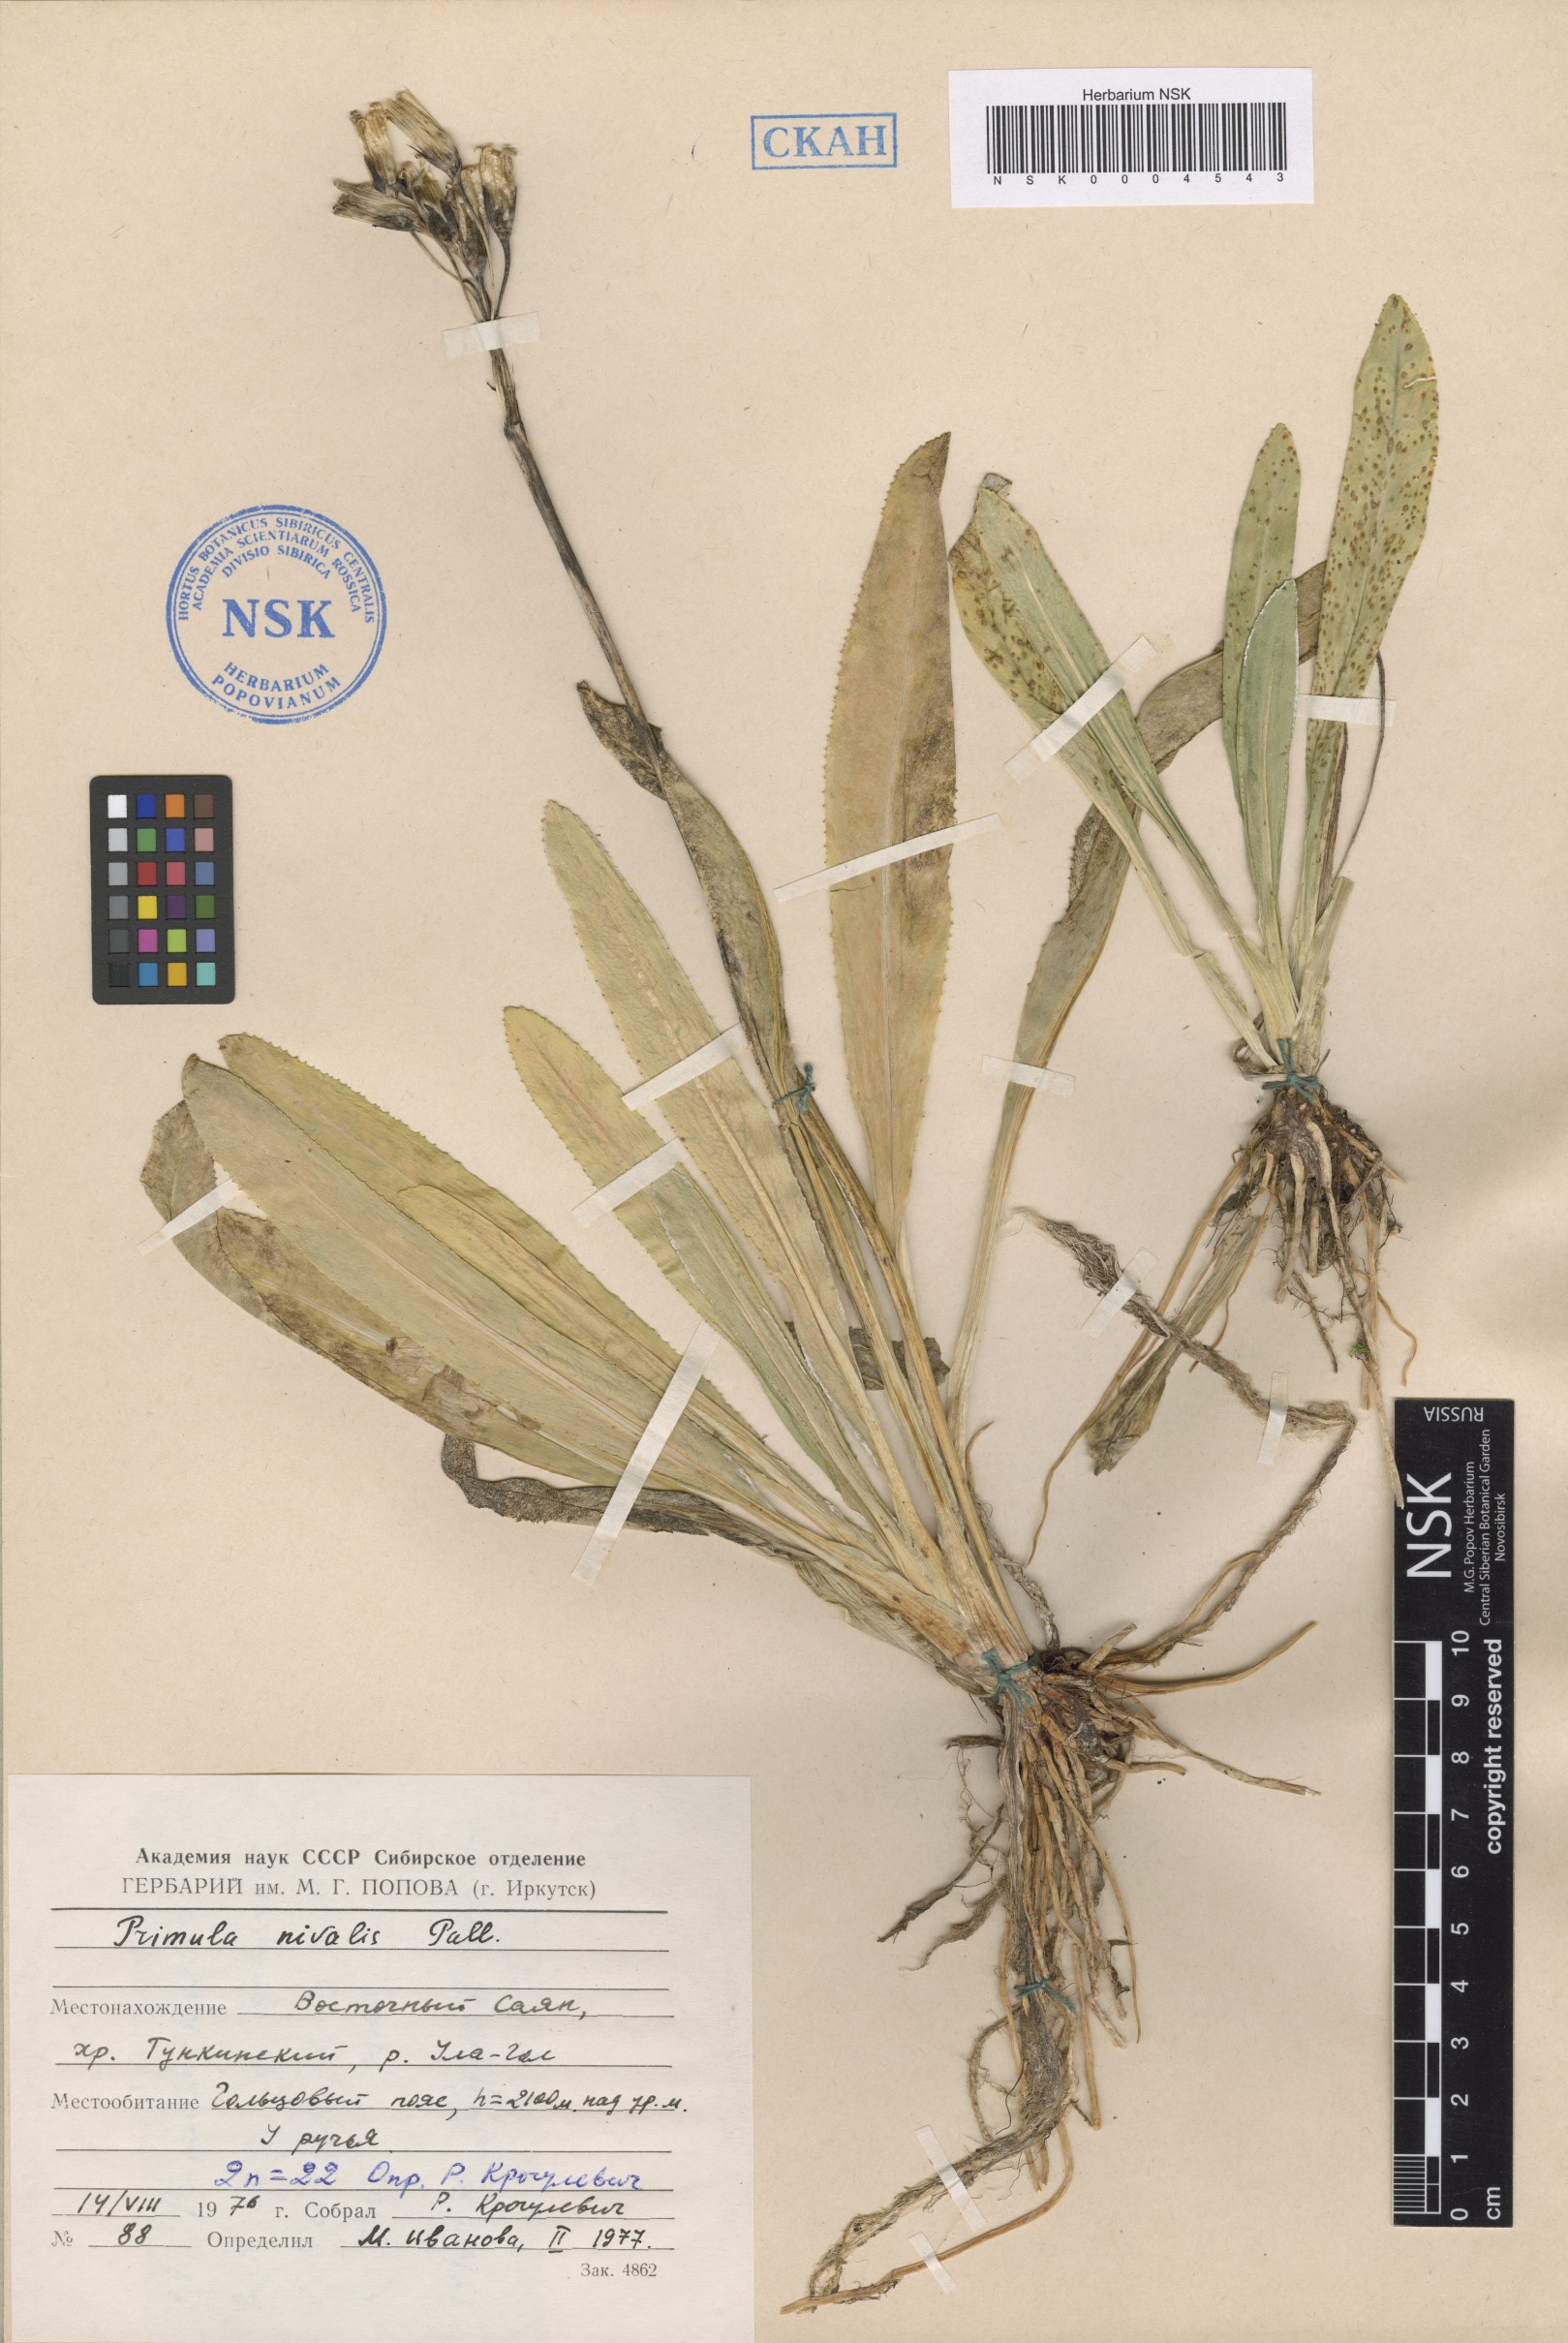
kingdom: Plantae
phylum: Tracheophyta
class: Magnoliopsida
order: Ericales
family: Primulaceae
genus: Primula
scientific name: Primula nivalis
